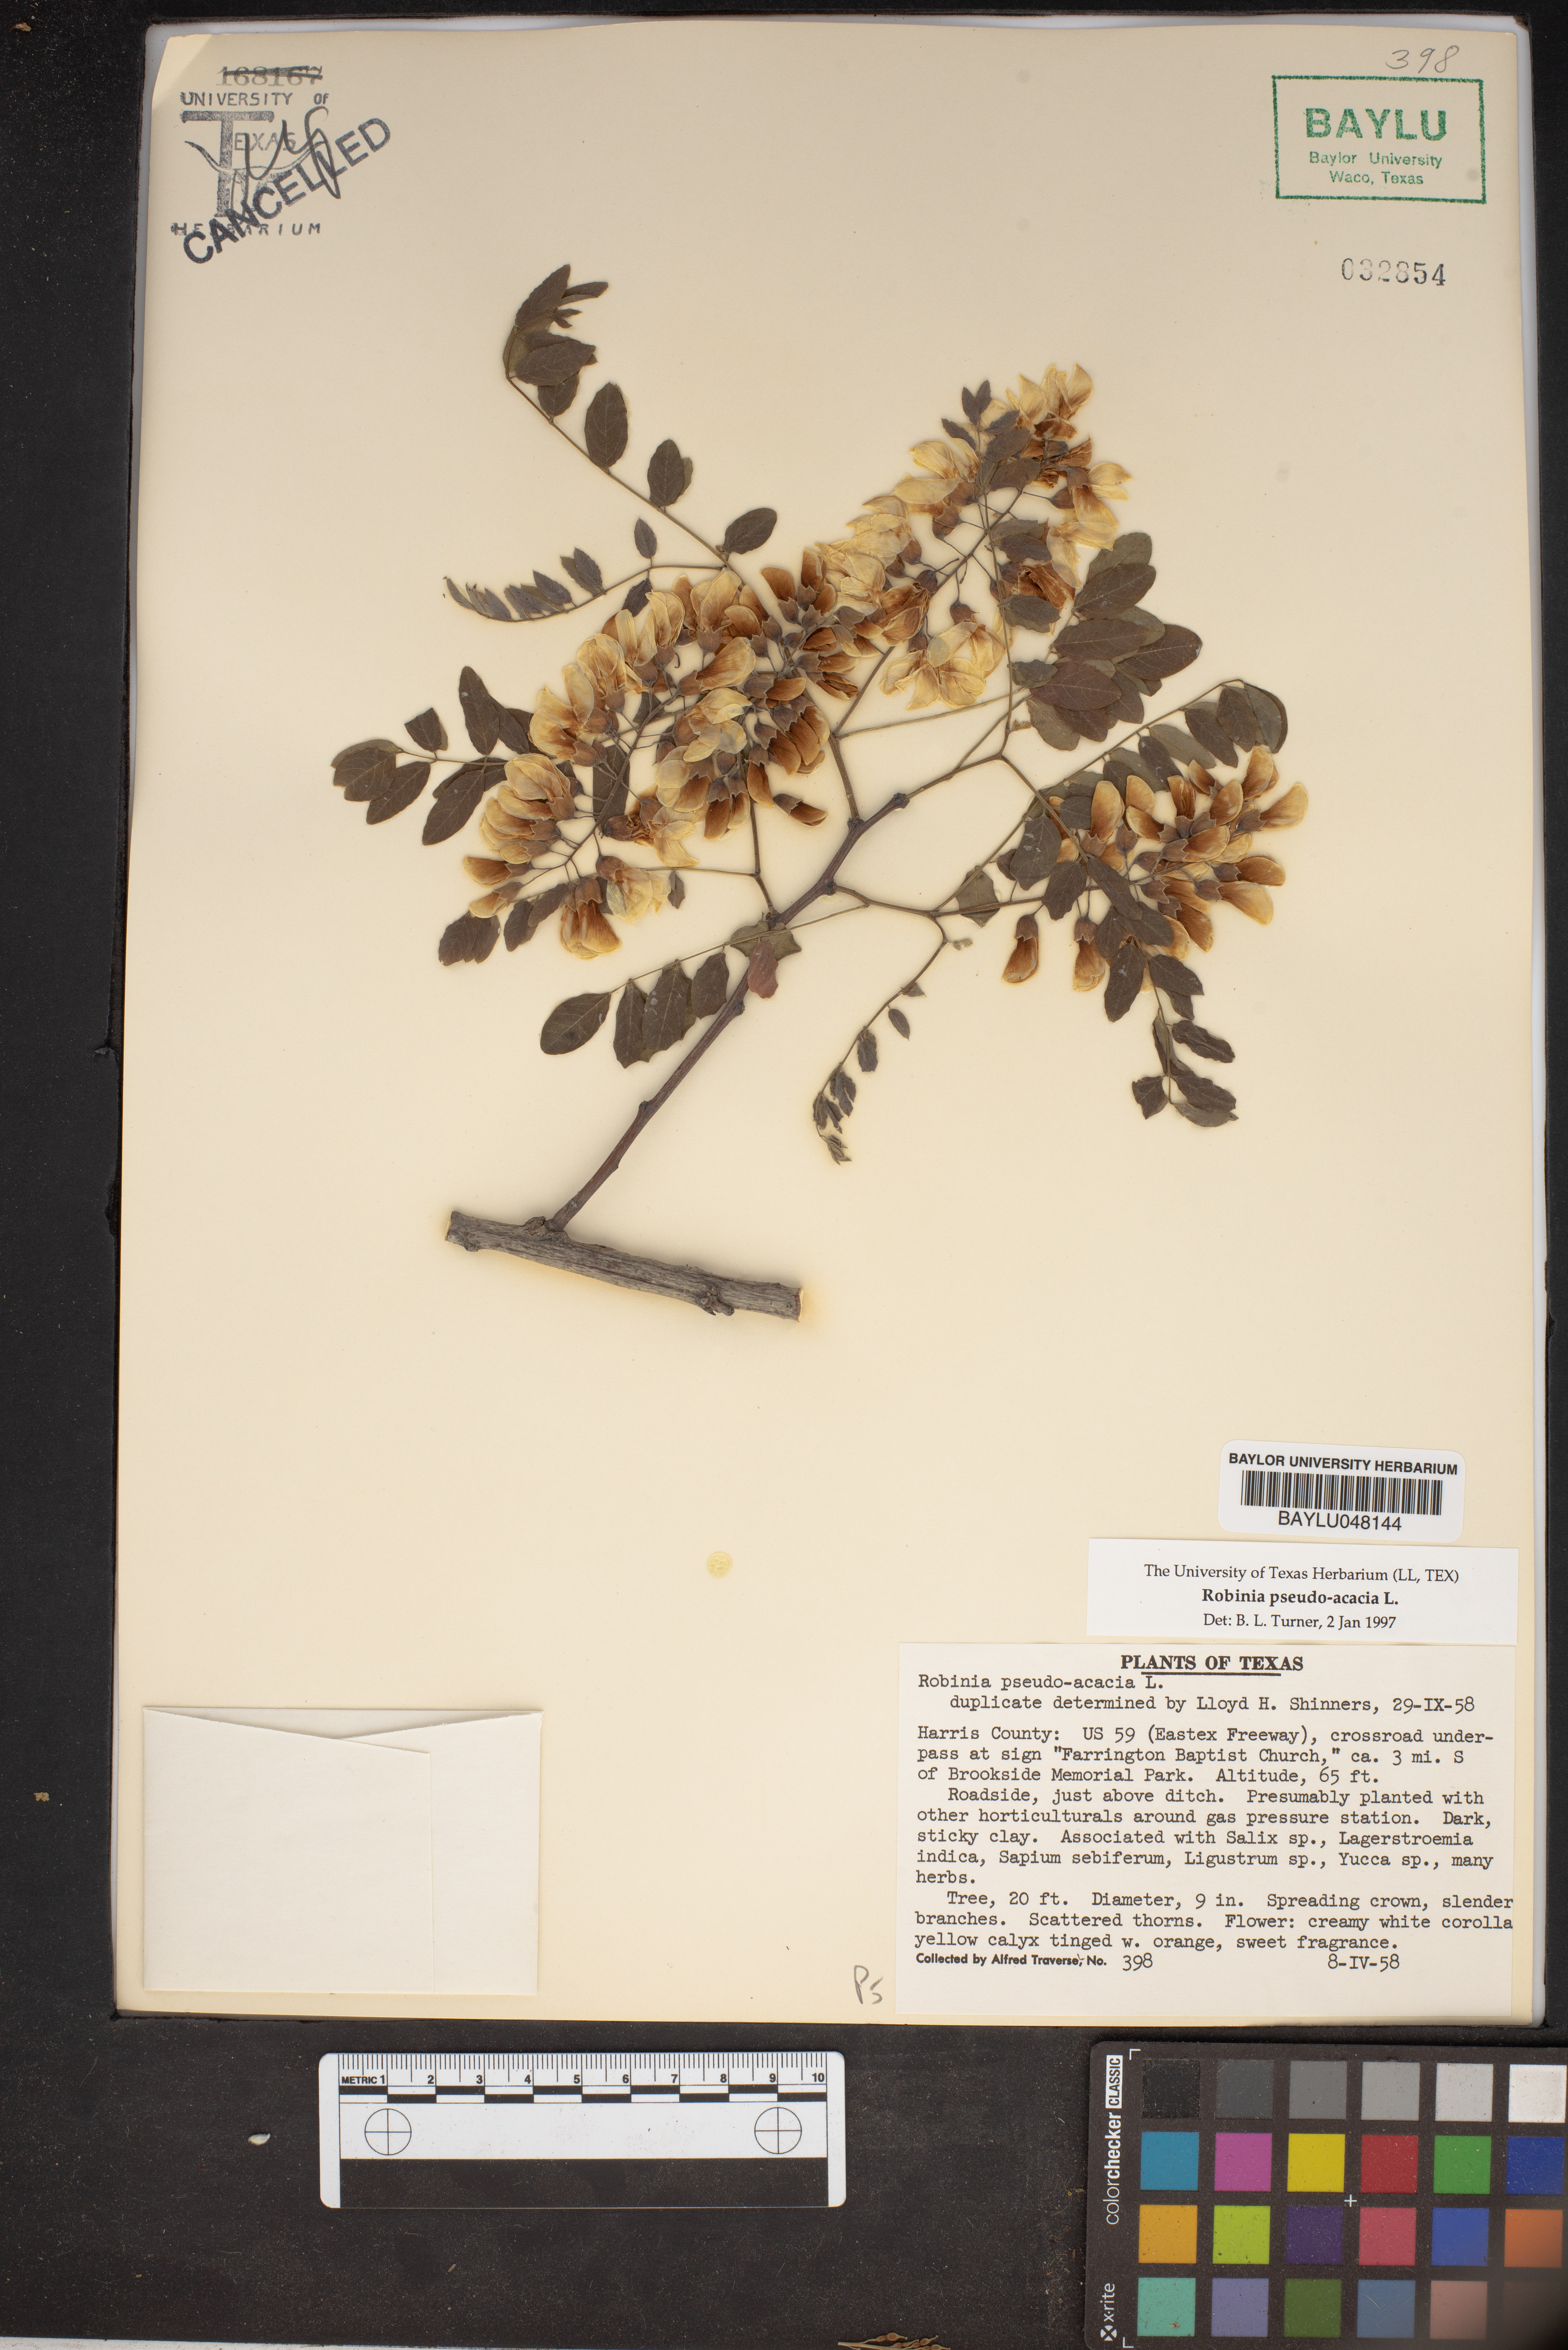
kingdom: Plantae
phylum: Tracheophyta
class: Magnoliopsida
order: Fabales
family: Fabaceae
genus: Robinia
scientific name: Robinia pseudoacacia
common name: Black locust
